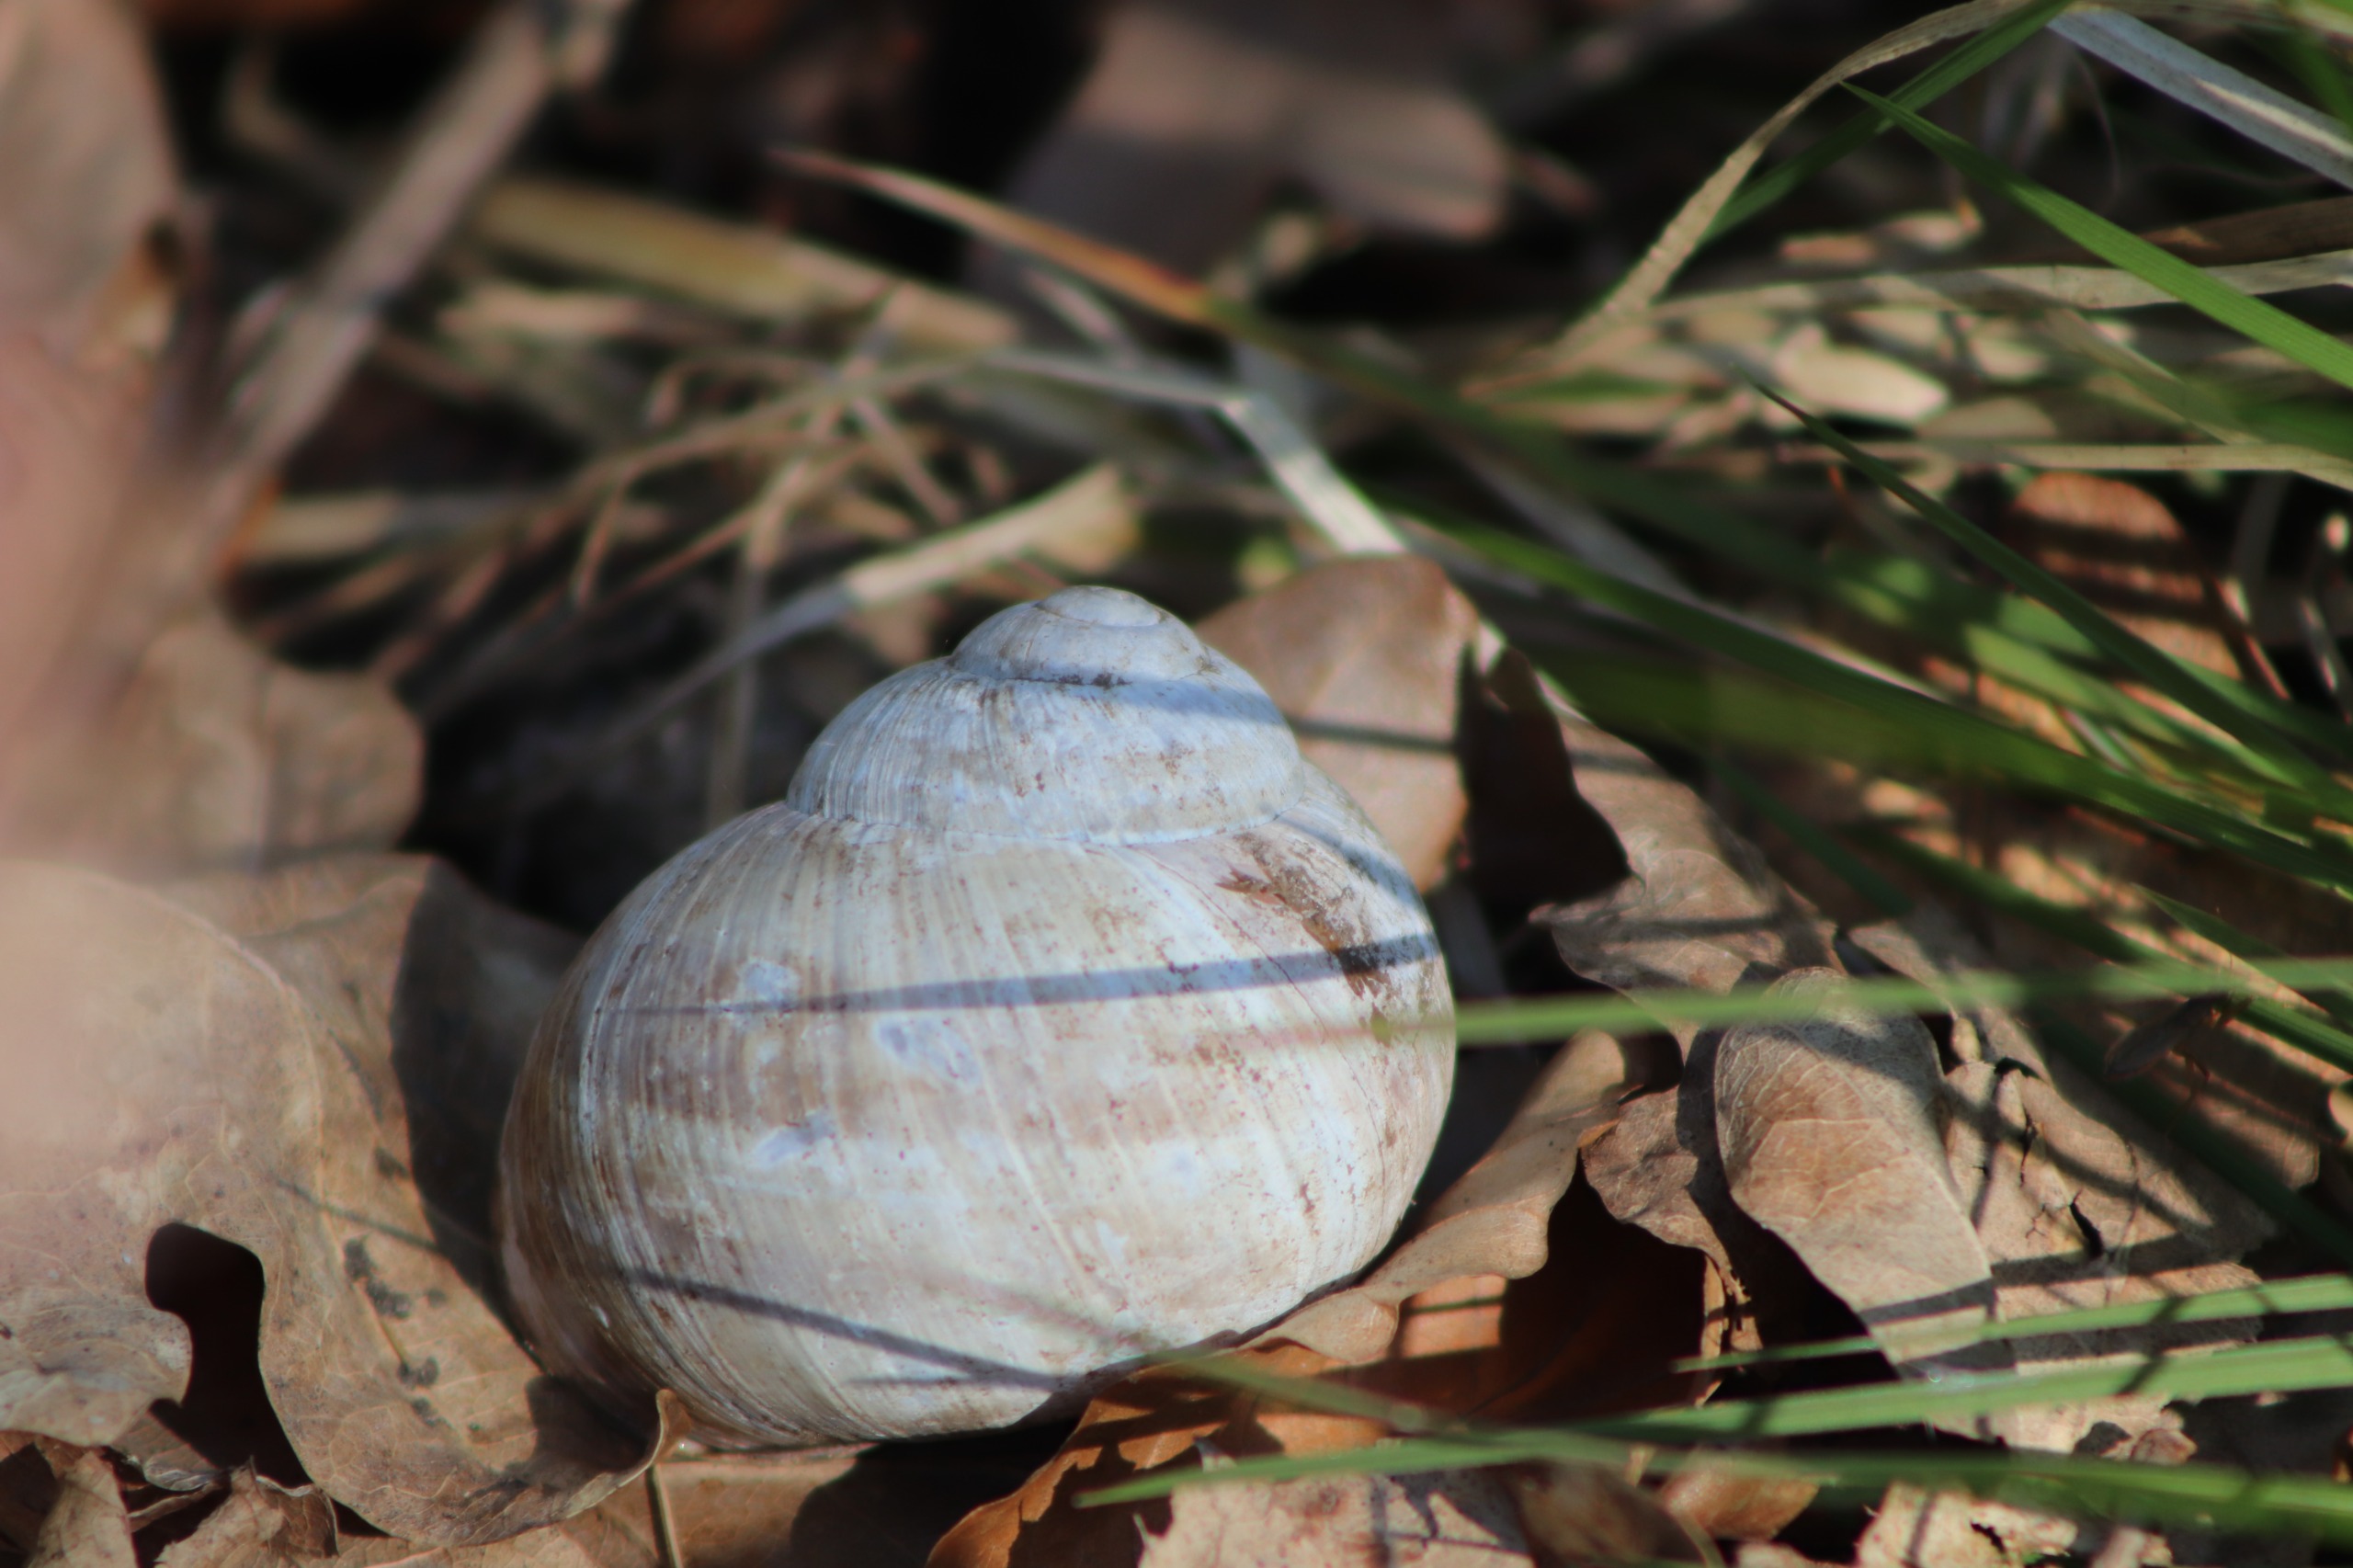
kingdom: Animalia
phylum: Mollusca
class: Gastropoda
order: Stylommatophora
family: Helicidae
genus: Helix
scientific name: Helix pomatia
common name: Vinbjergsnegl
